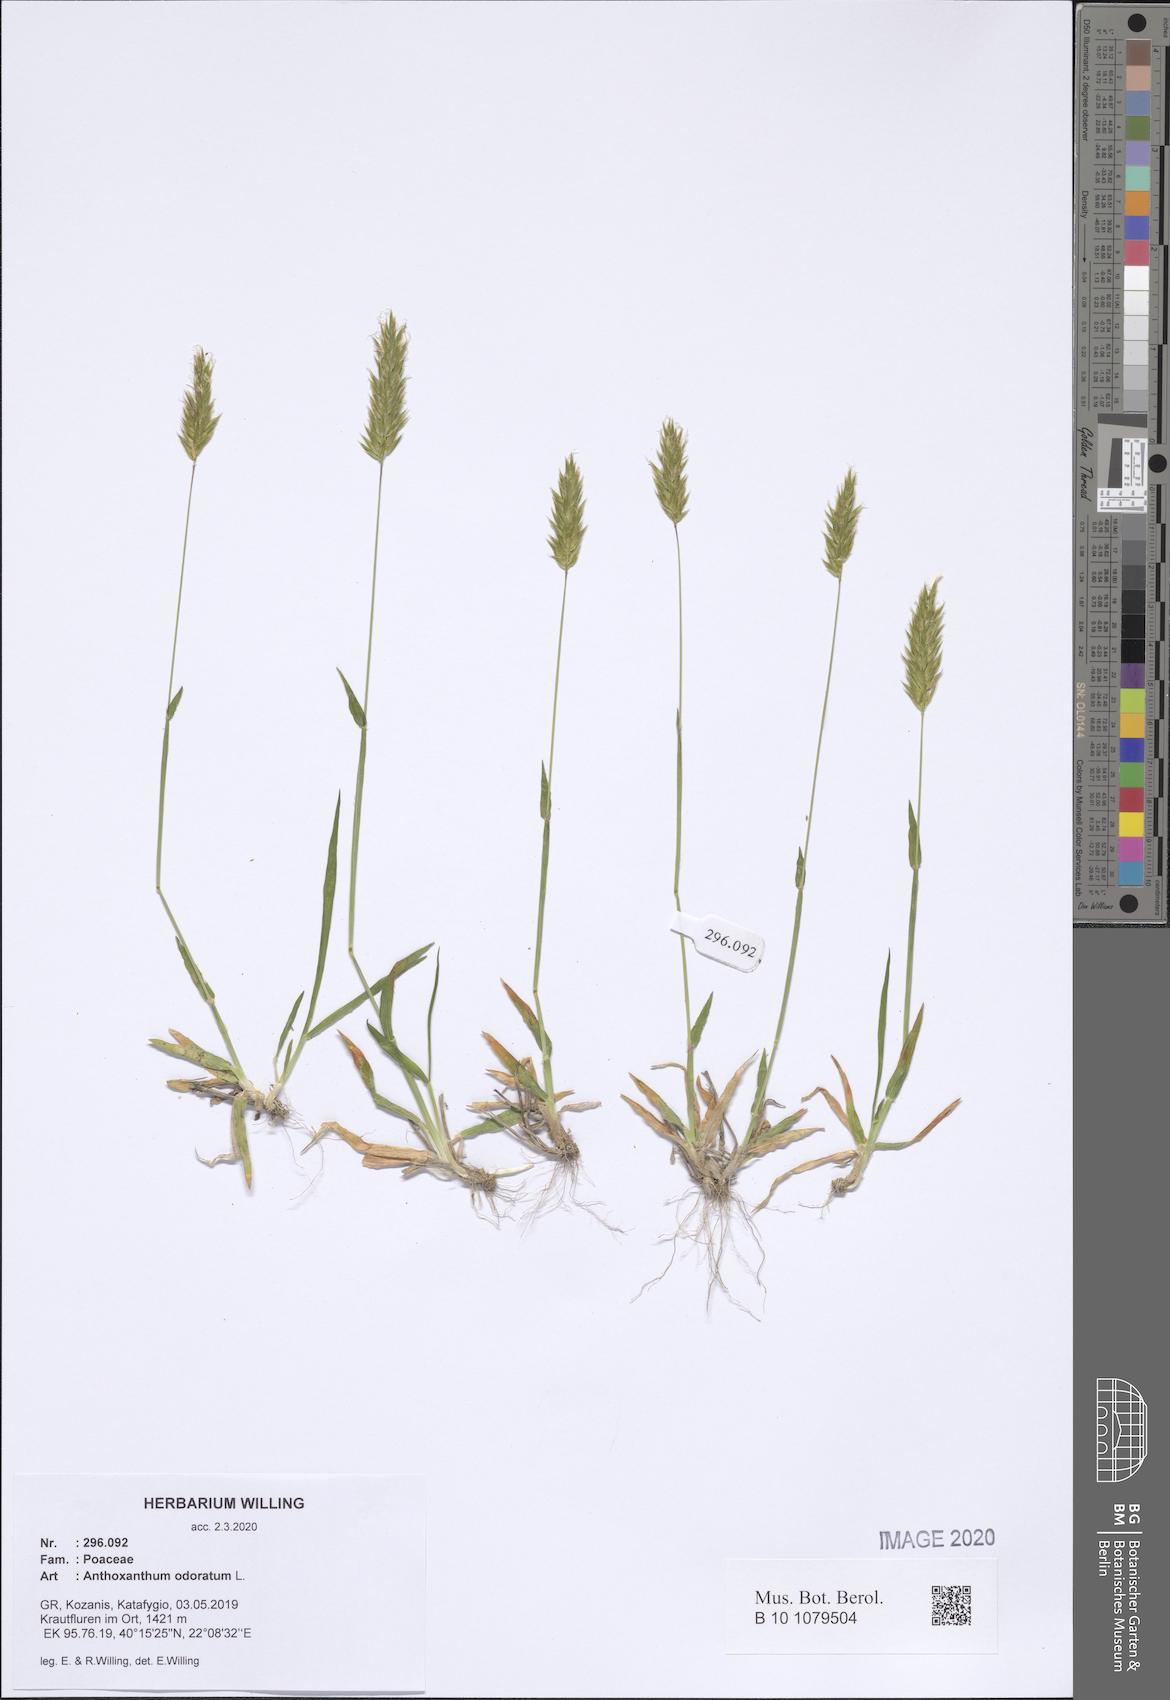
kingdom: Plantae
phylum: Tracheophyta
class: Liliopsida
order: Poales
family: Poaceae
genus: Anthoxanthum
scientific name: Anthoxanthum odoratum
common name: Sweet vernalgrass
